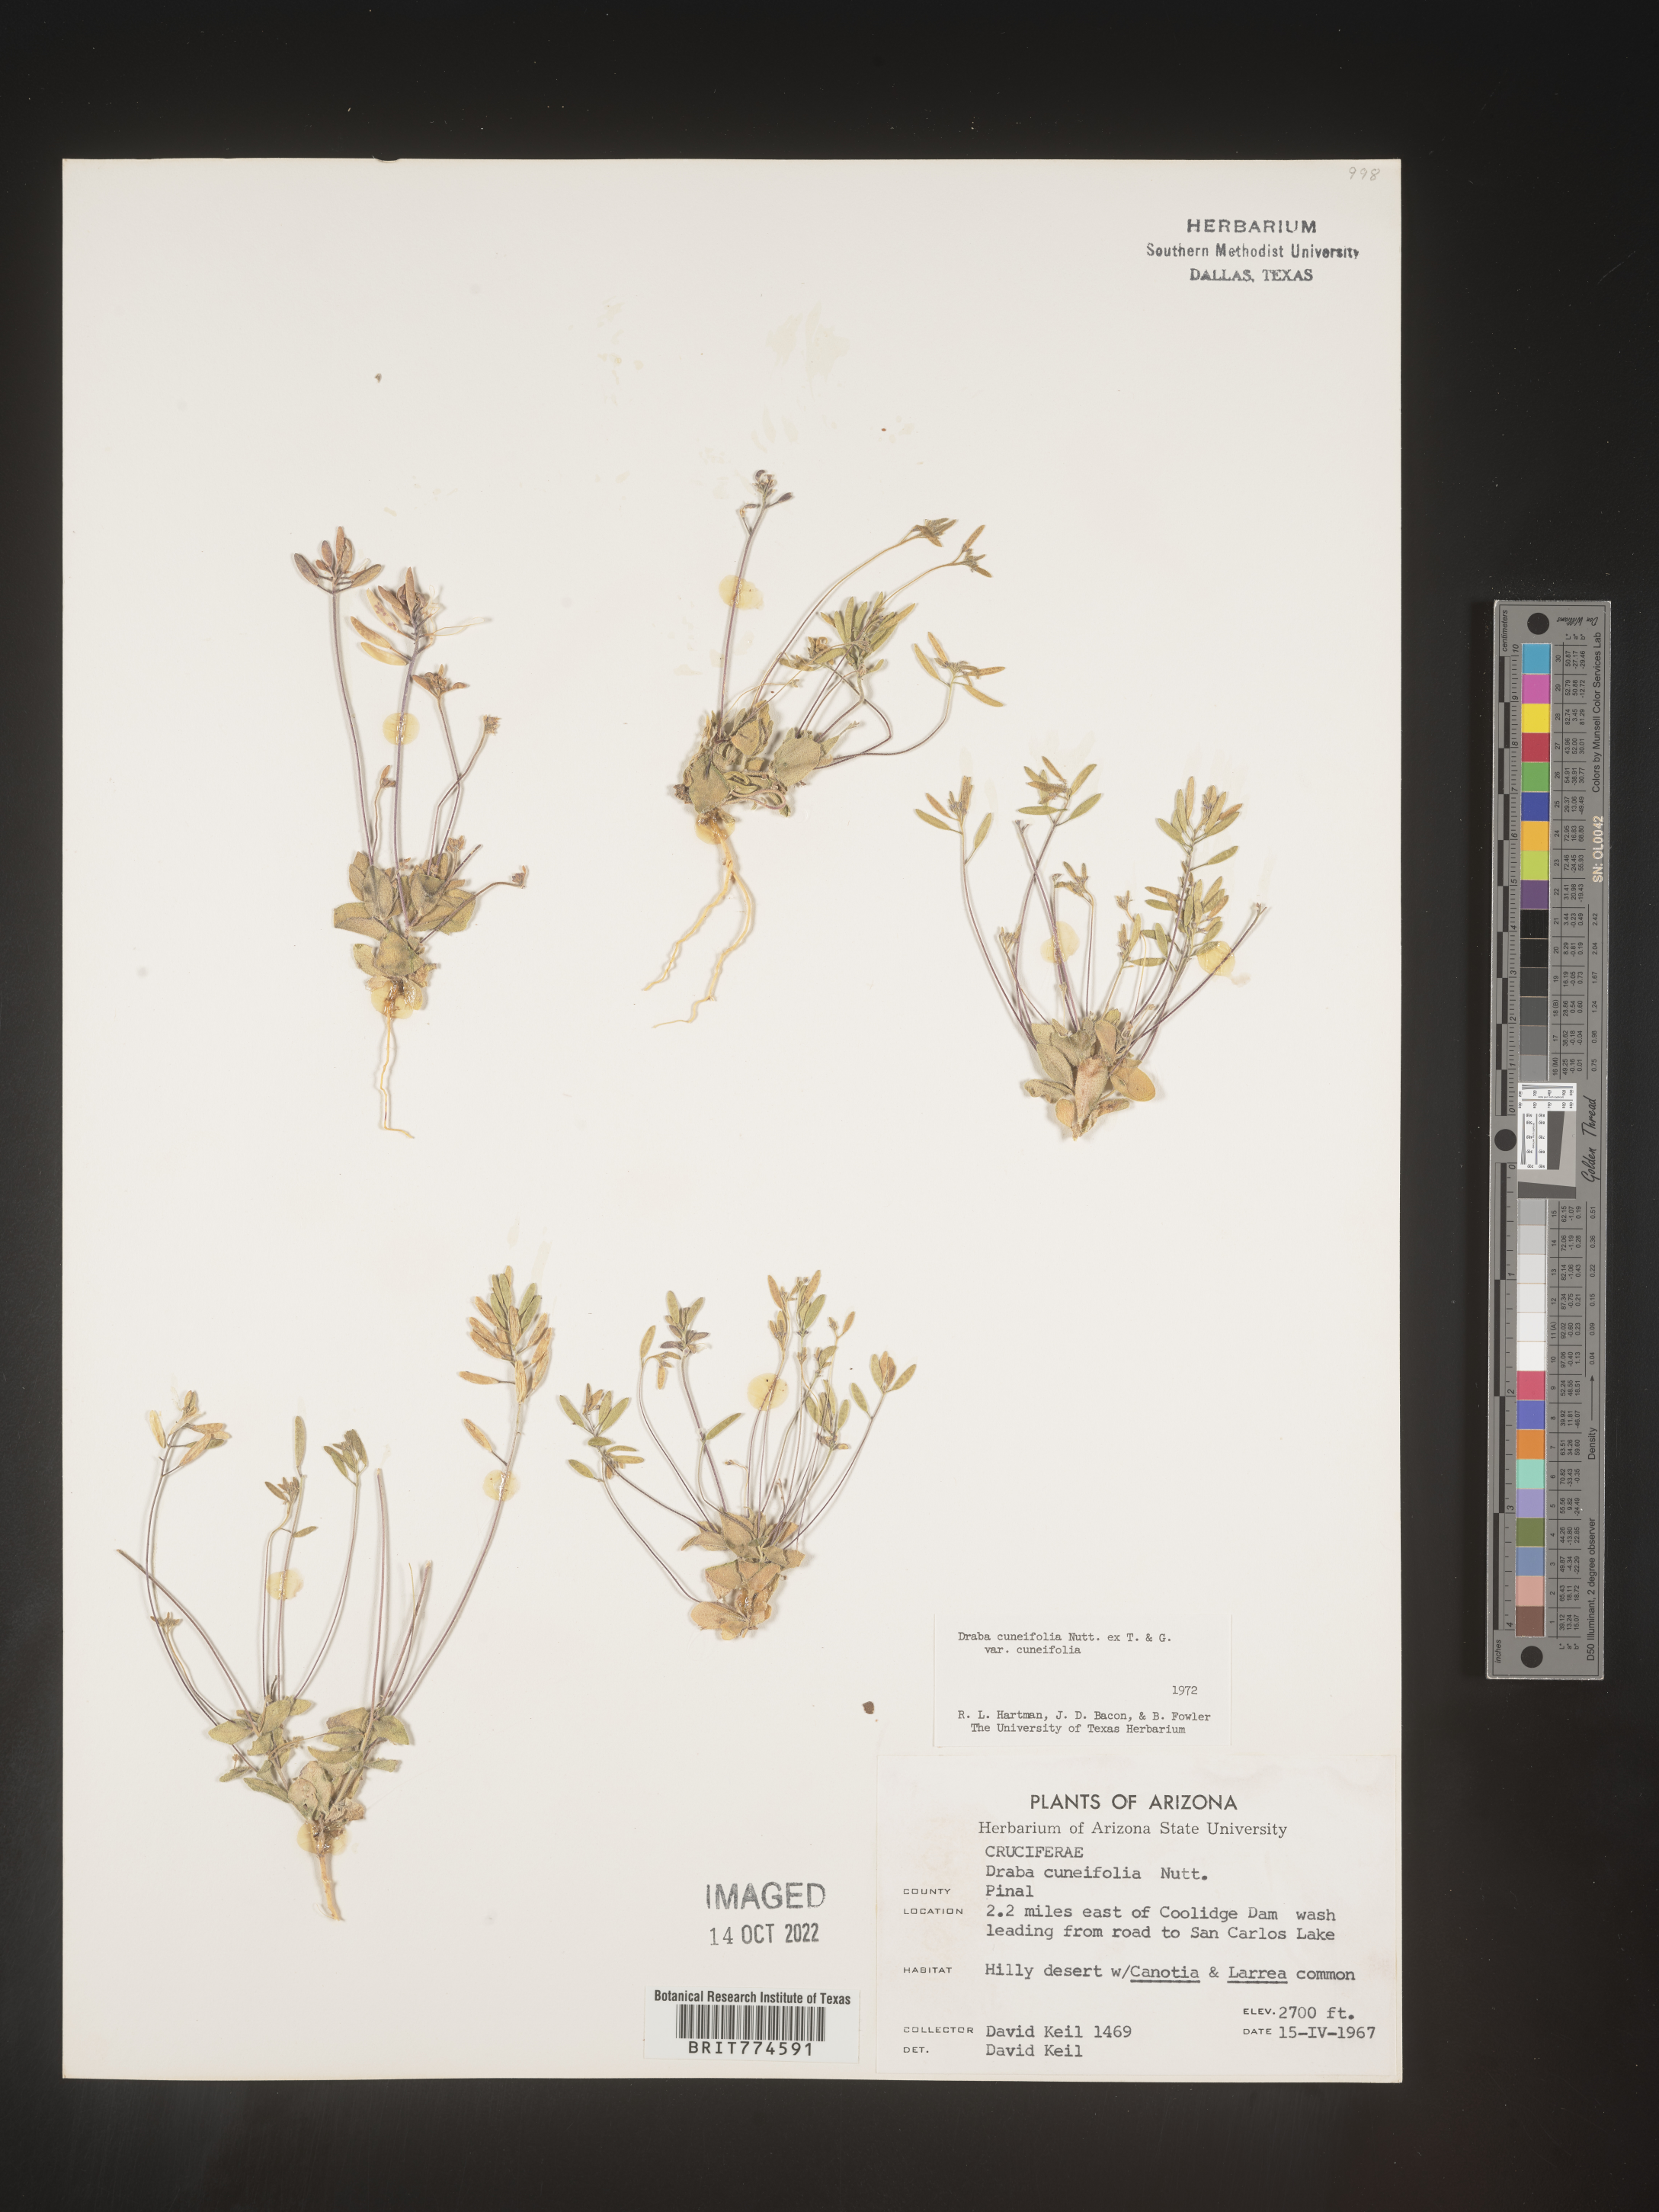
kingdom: Plantae
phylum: Tracheophyta
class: Magnoliopsida
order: Brassicales
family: Brassicaceae
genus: Tomostima
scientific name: Tomostima cuneifolia
